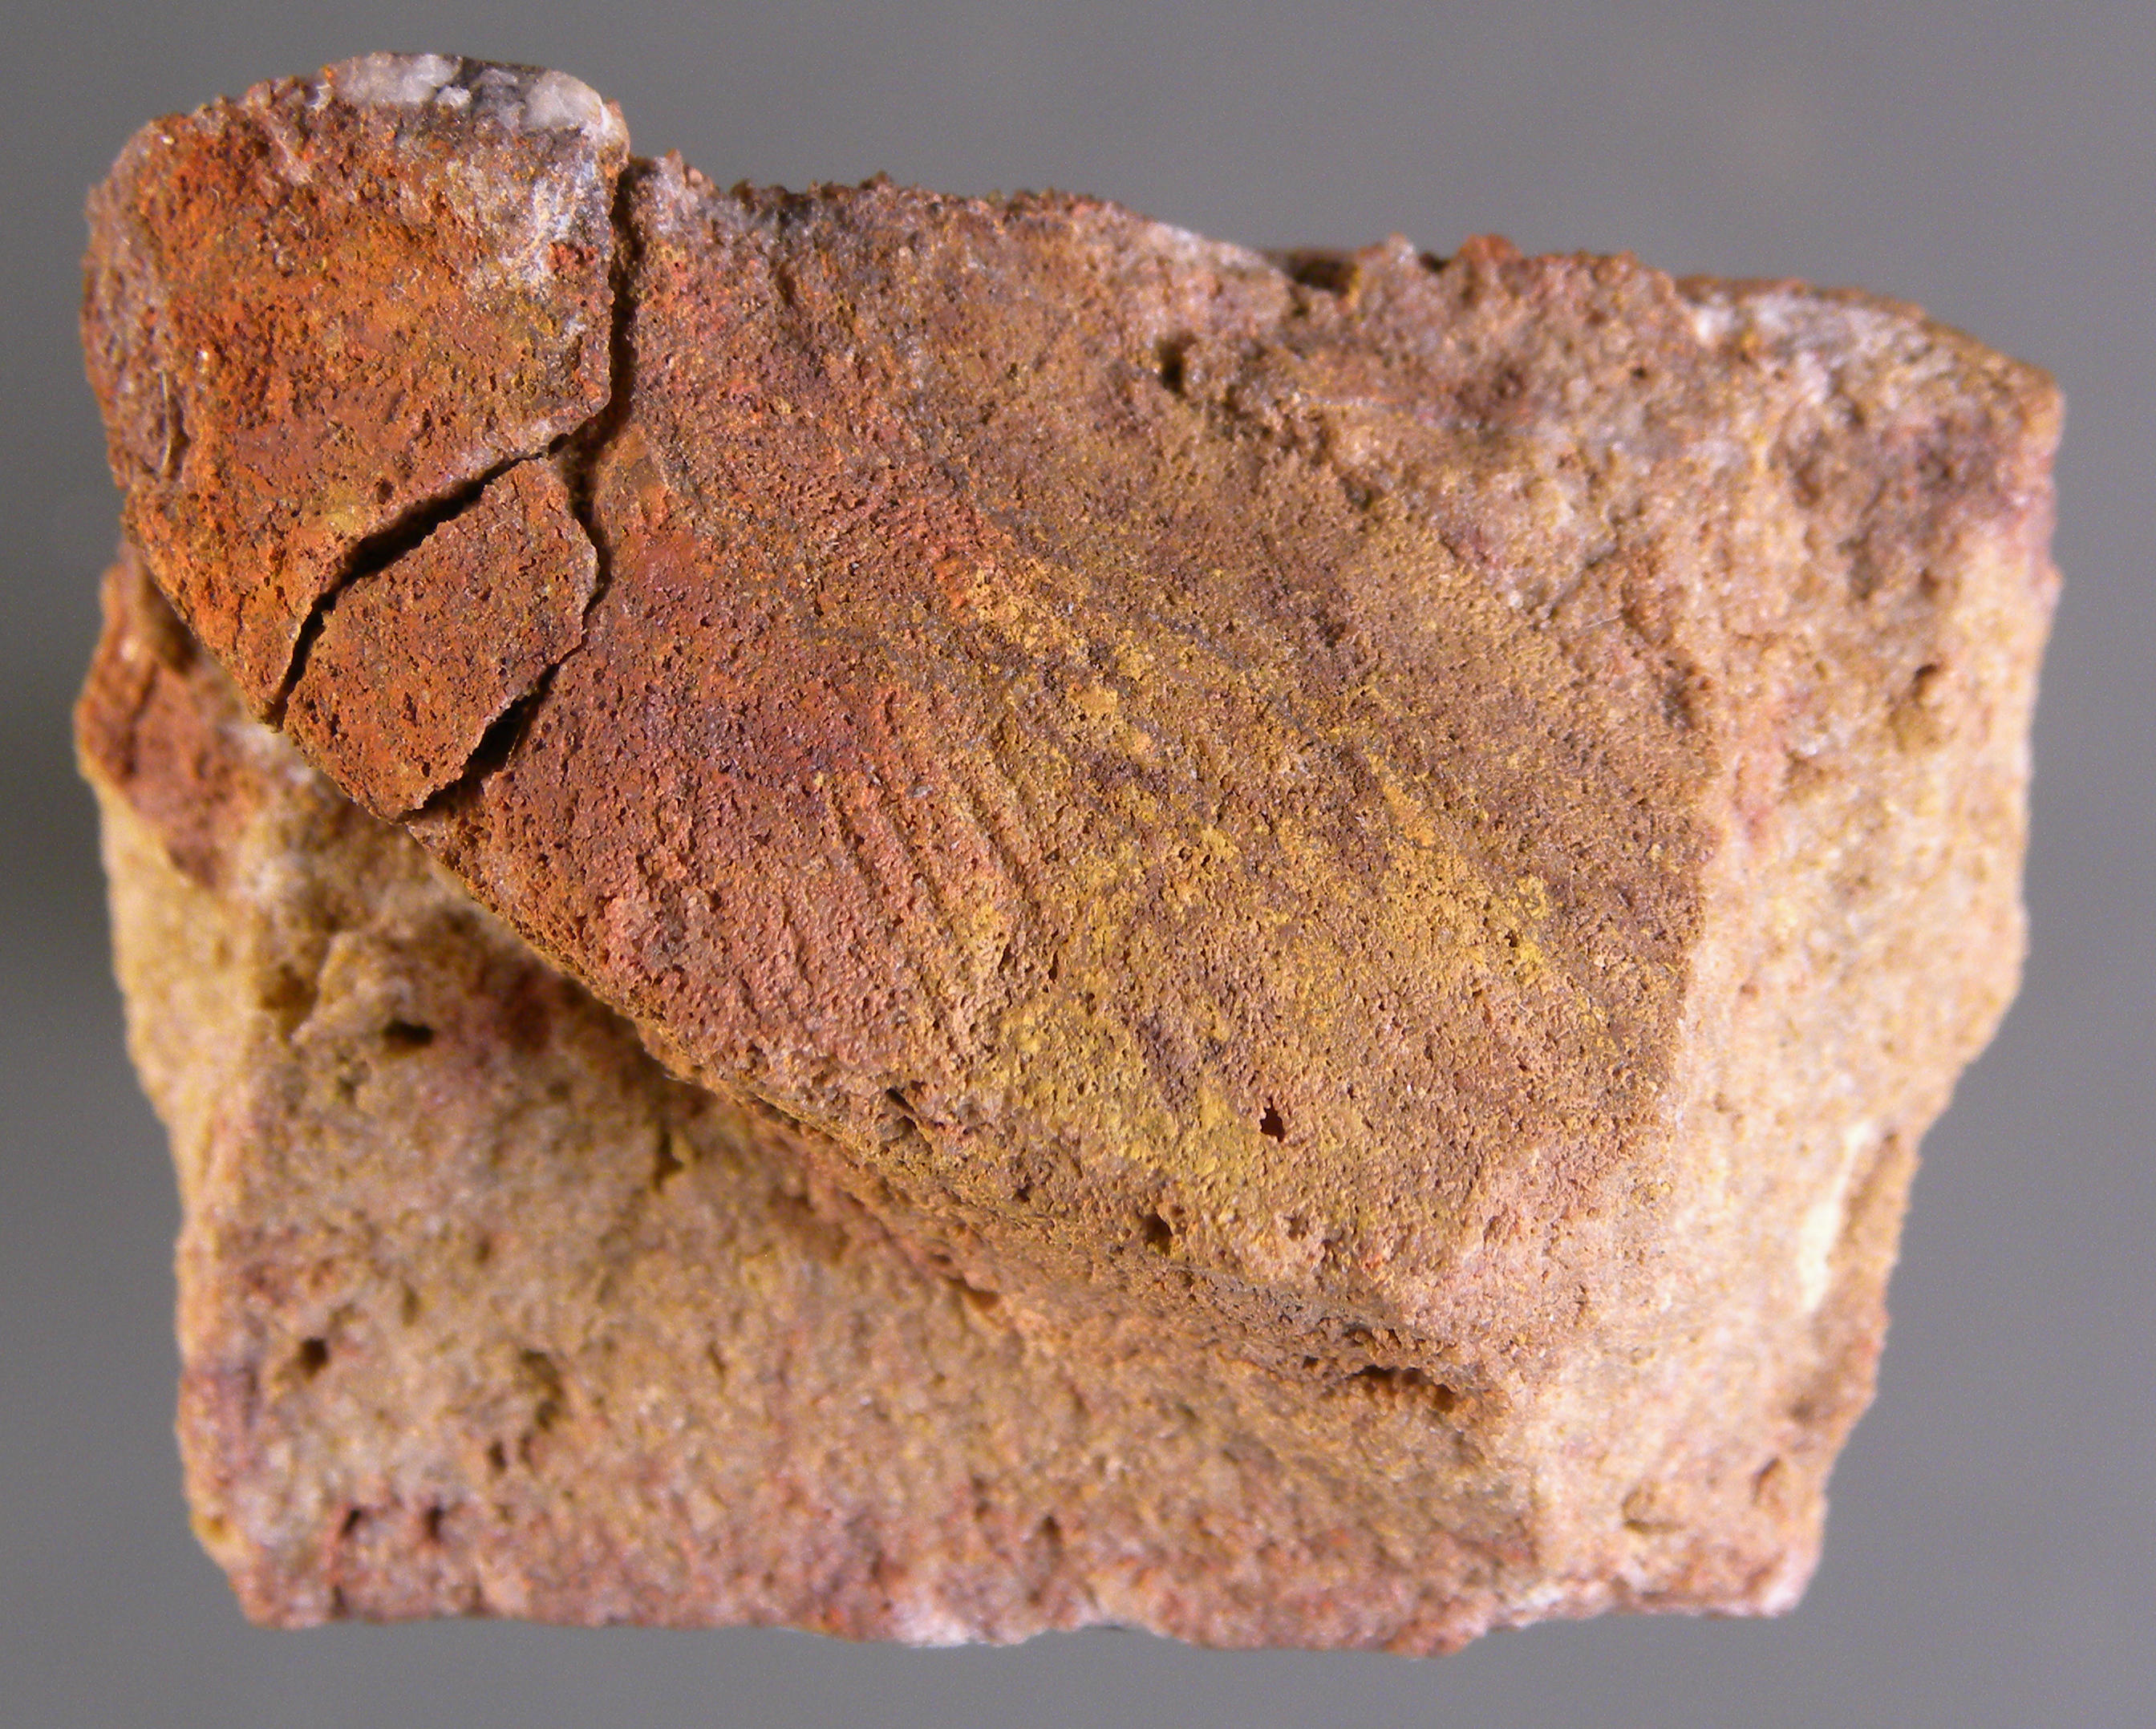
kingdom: Animalia
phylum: Mollusca
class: Bivalvia
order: Modiomorphida
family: Modiomorphidae
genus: Goniophora
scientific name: Goniophora
